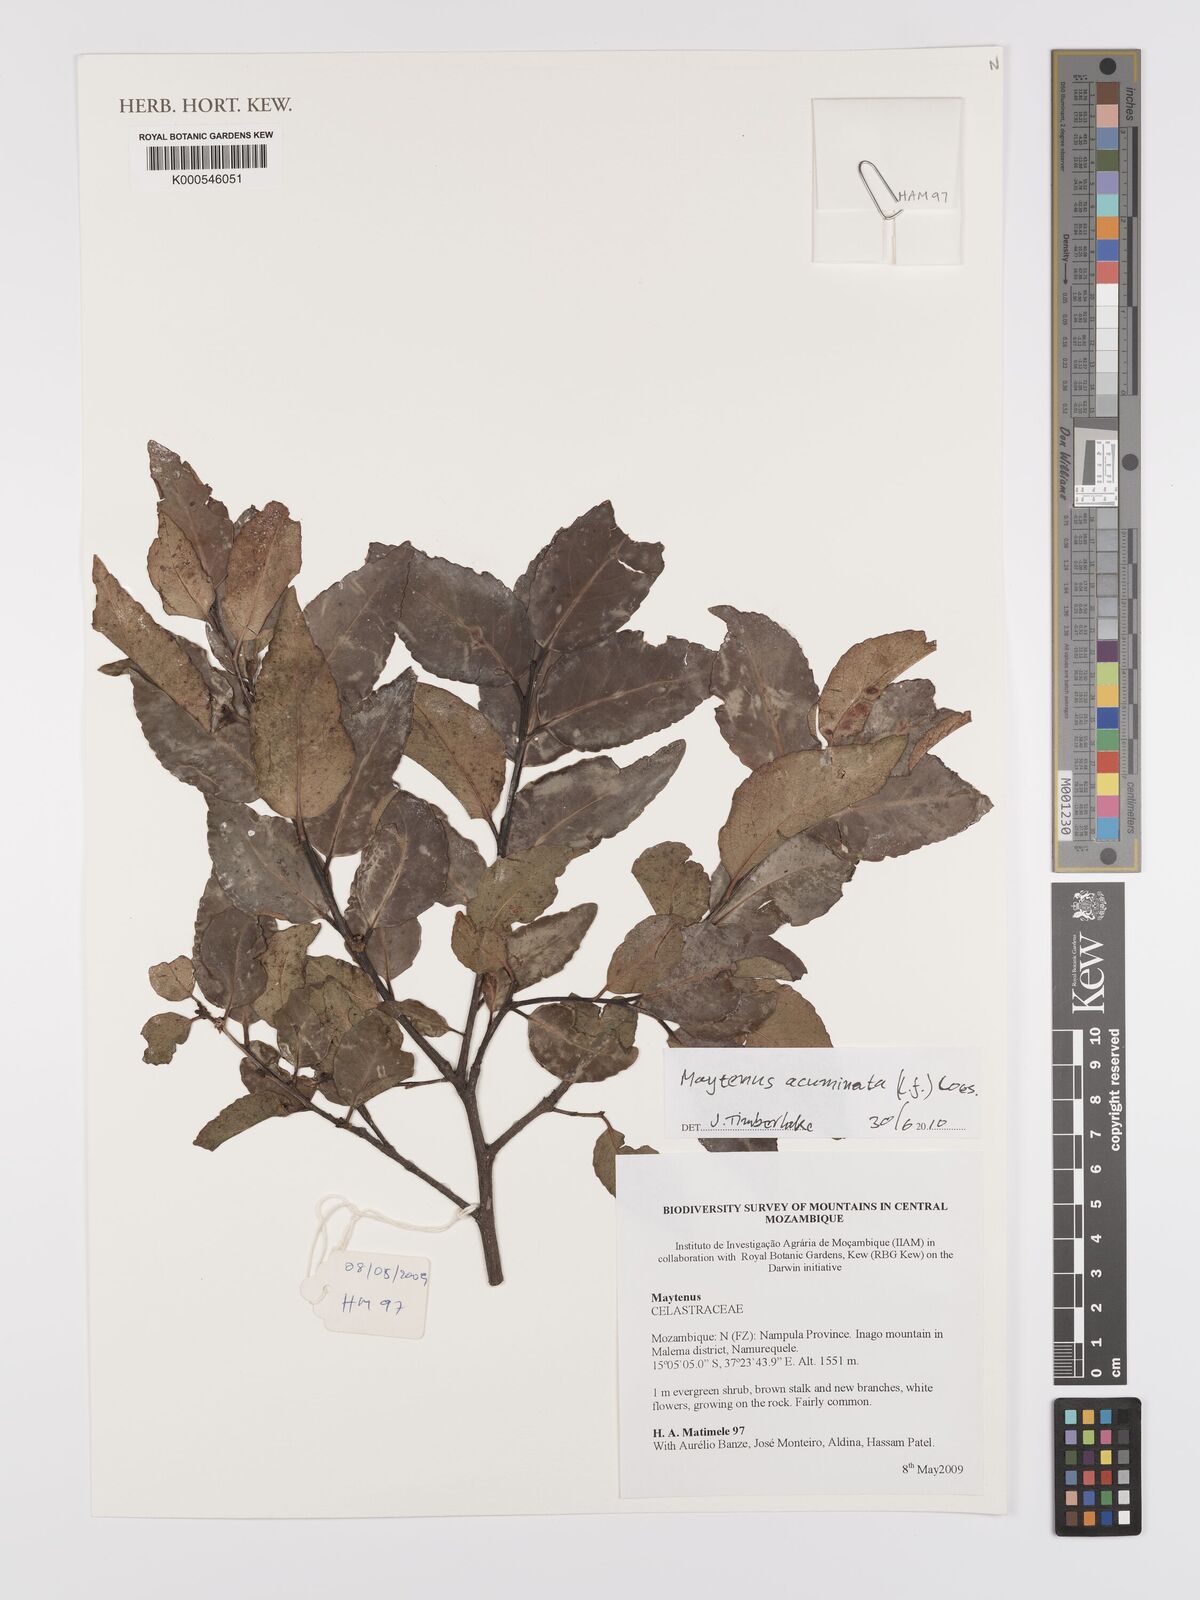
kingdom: Plantae
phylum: Tracheophyta
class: Magnoliopsida
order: Celastrales
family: Celastraceae
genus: Gymnosporia
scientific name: Gymnosporia acuminata
